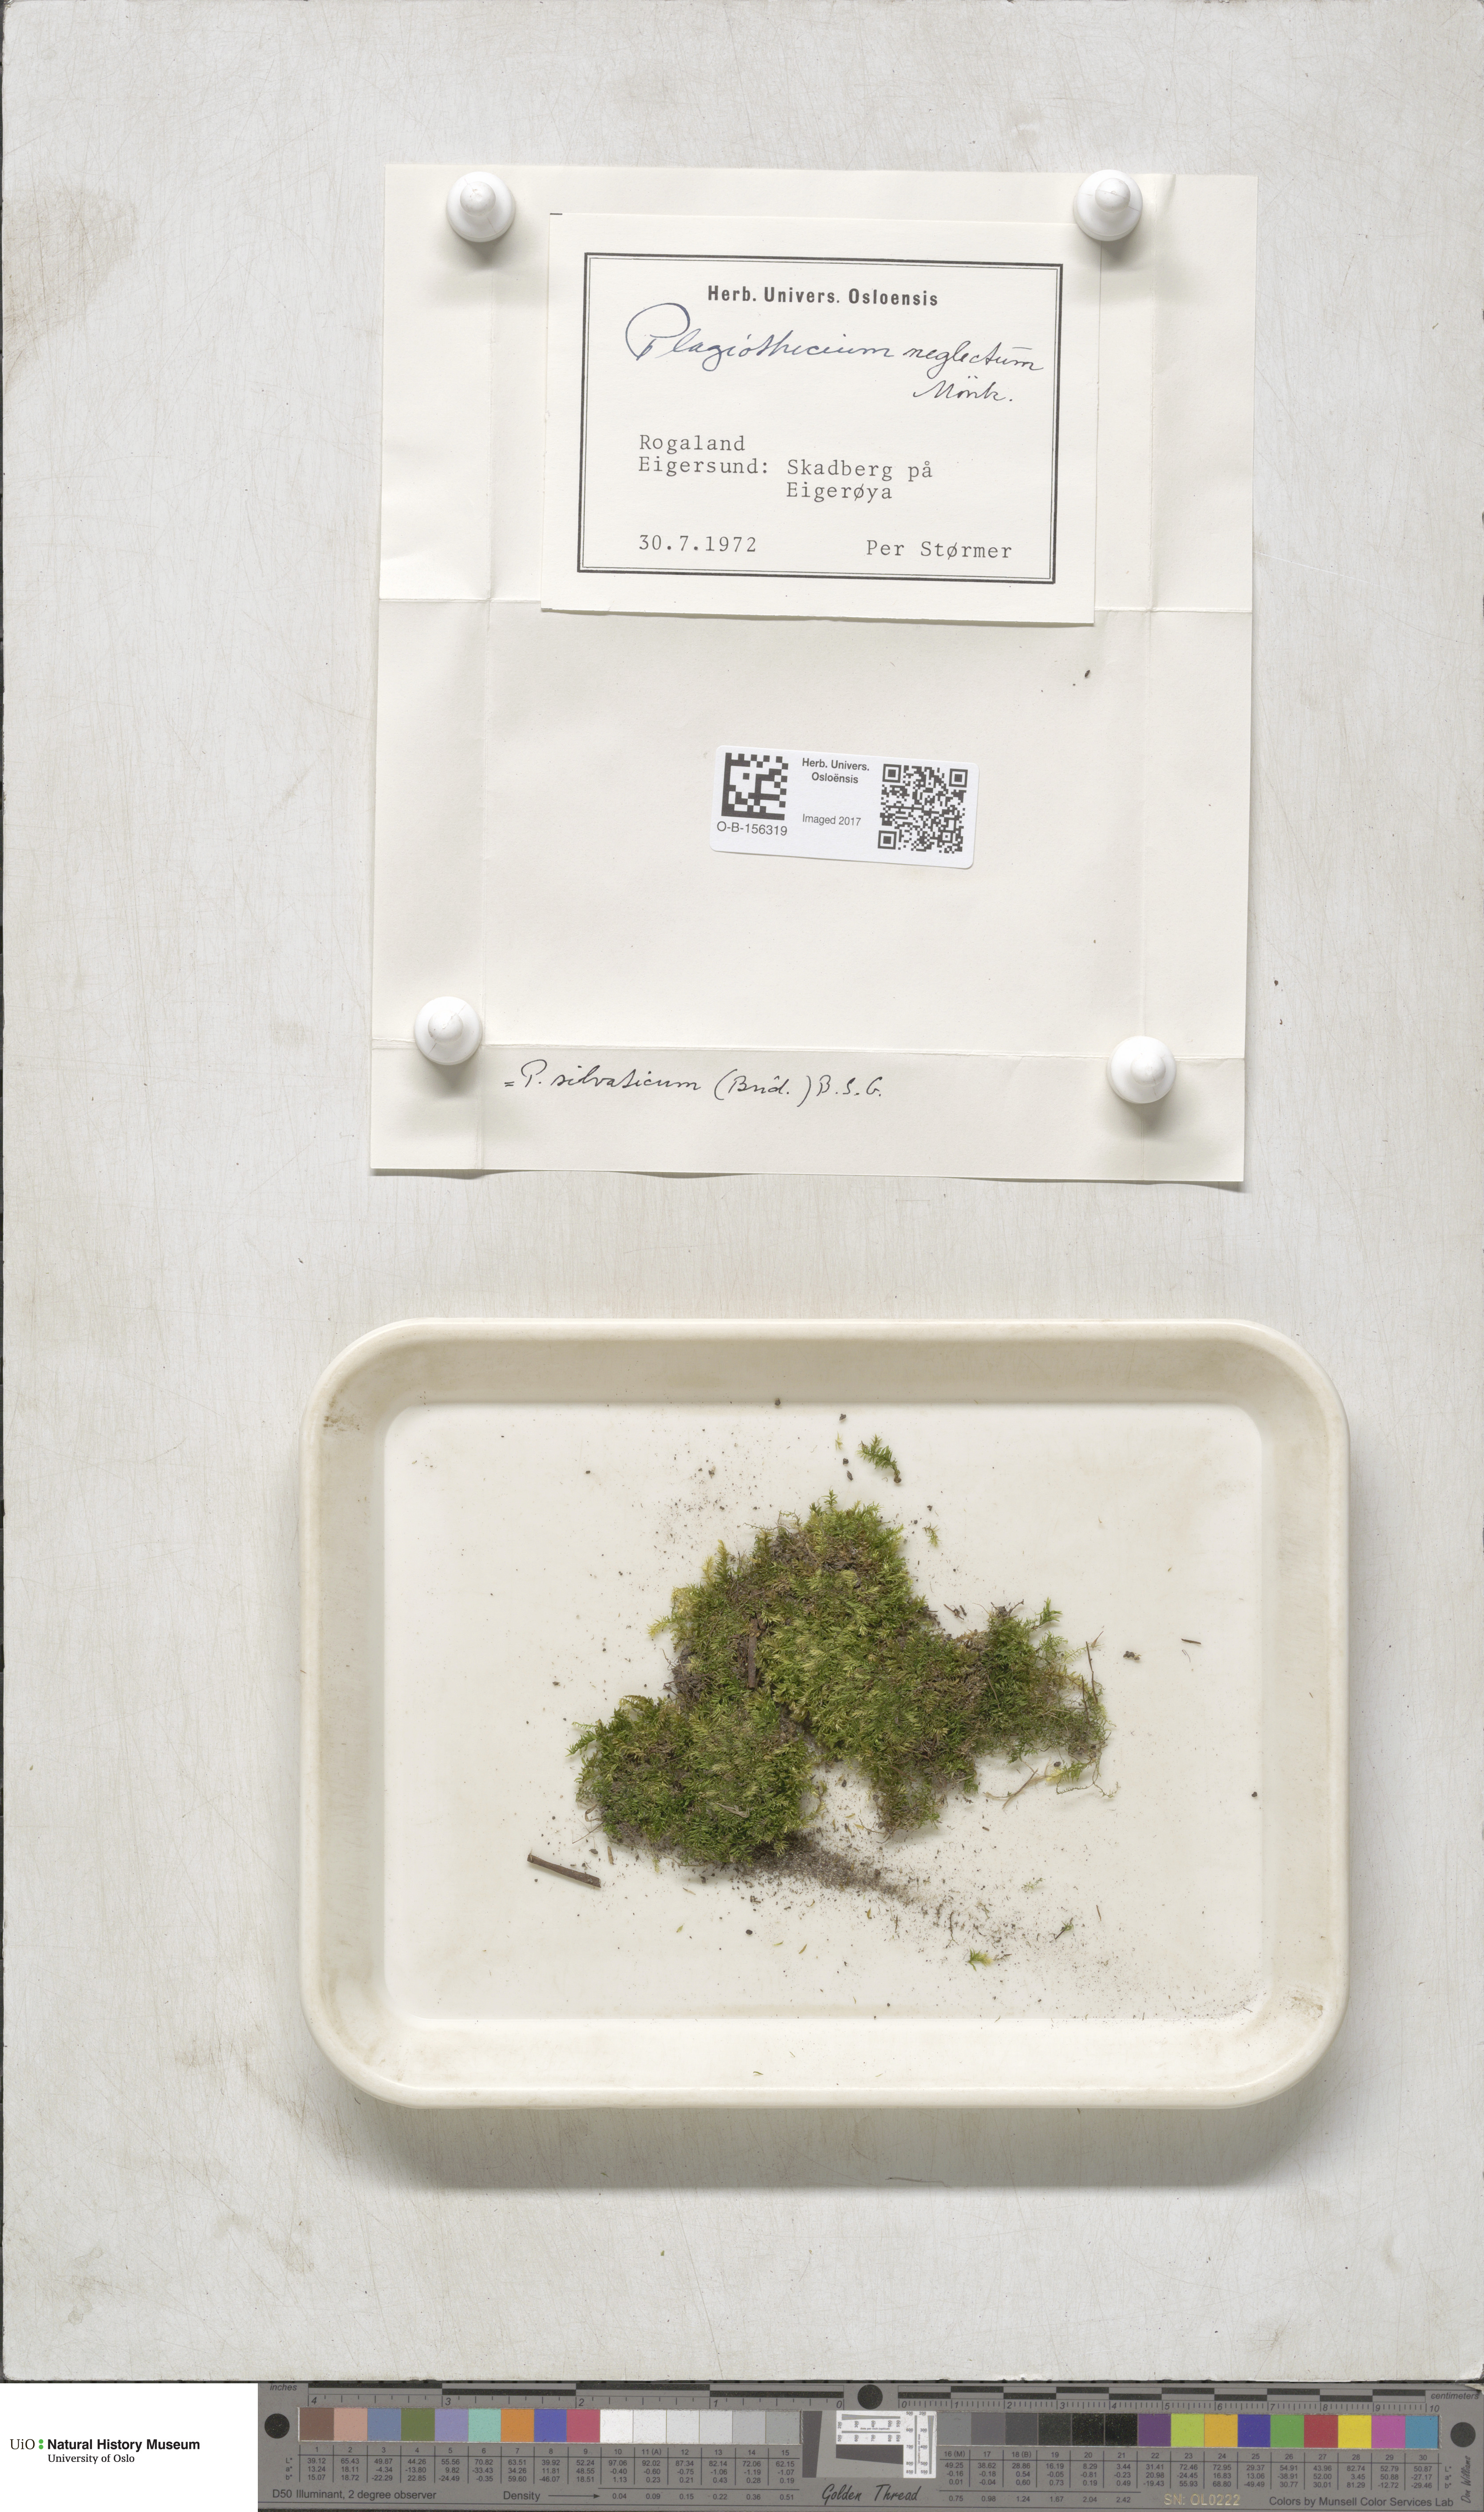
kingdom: Plantae
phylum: Bryophyta
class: Bryopsida
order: Hypnales
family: Plagiotheciaceae
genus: Plagiothecium
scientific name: Plagiothecium nemorale
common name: Woodsy silk-moss
